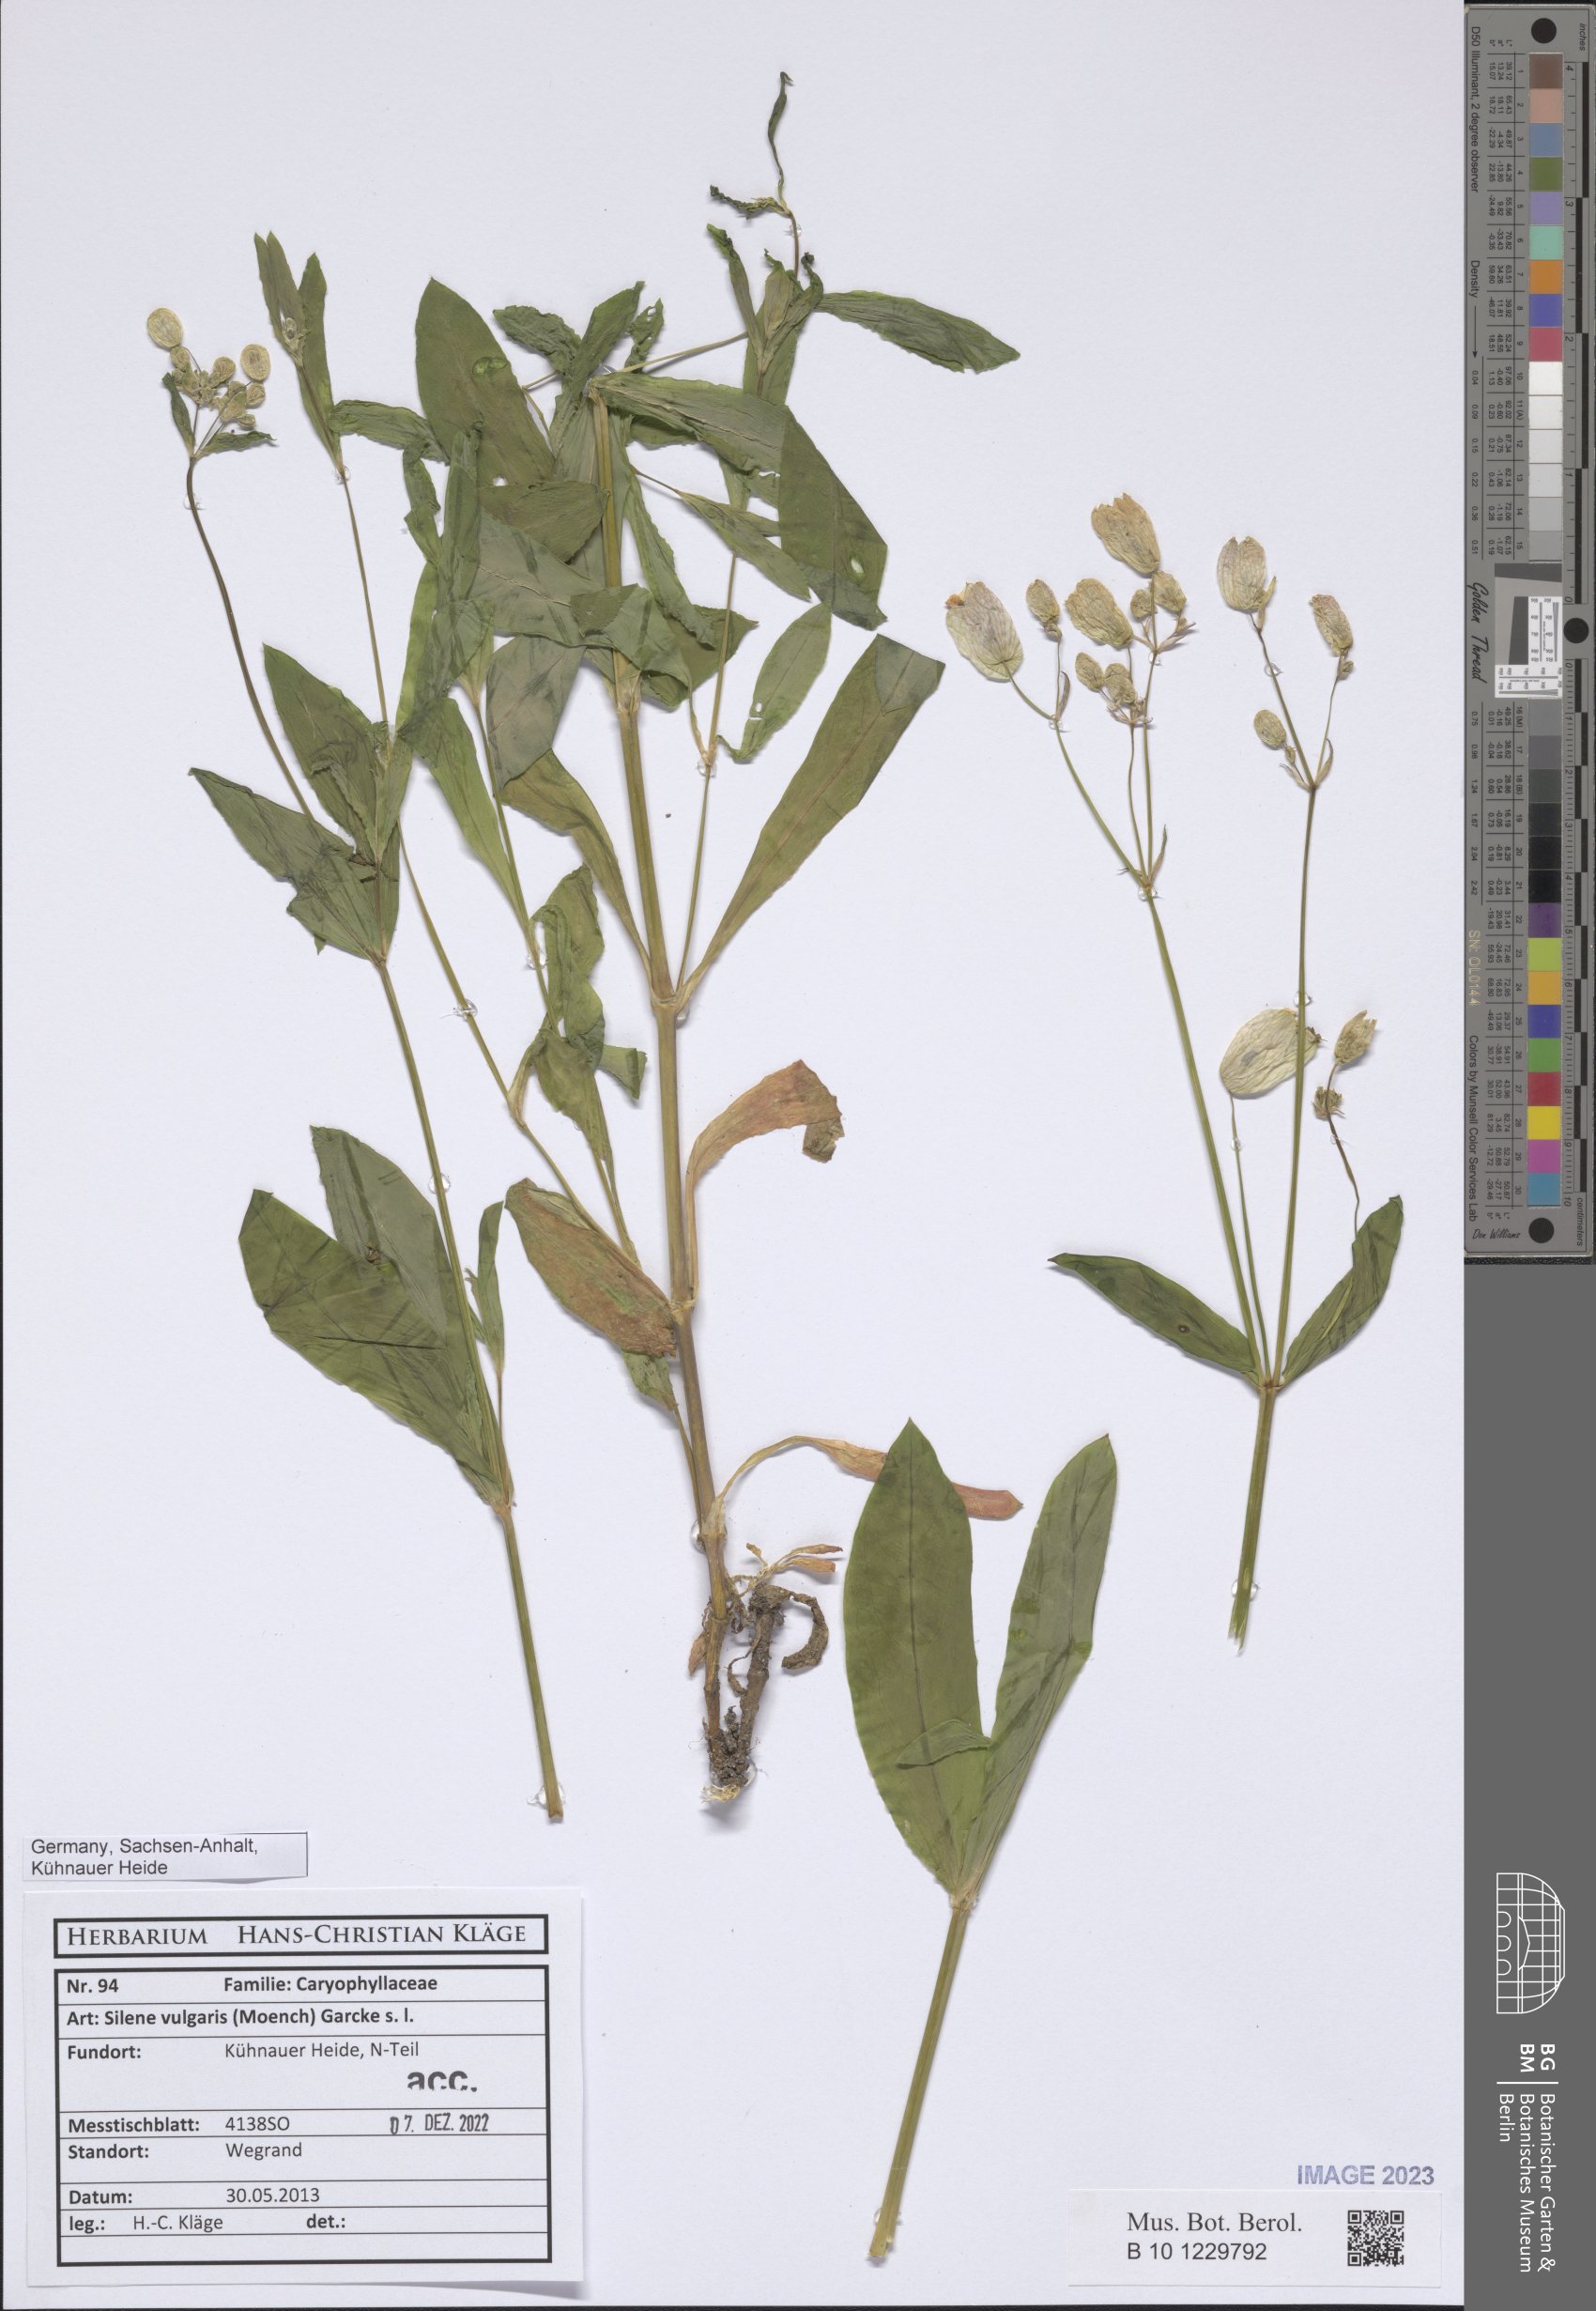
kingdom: Plantae
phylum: Tracheophyta
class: Magnoliopsida
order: Caryophyllales
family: Caryophyllaceae
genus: Silene
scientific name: Silene vulgaris
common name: Bladder campion
